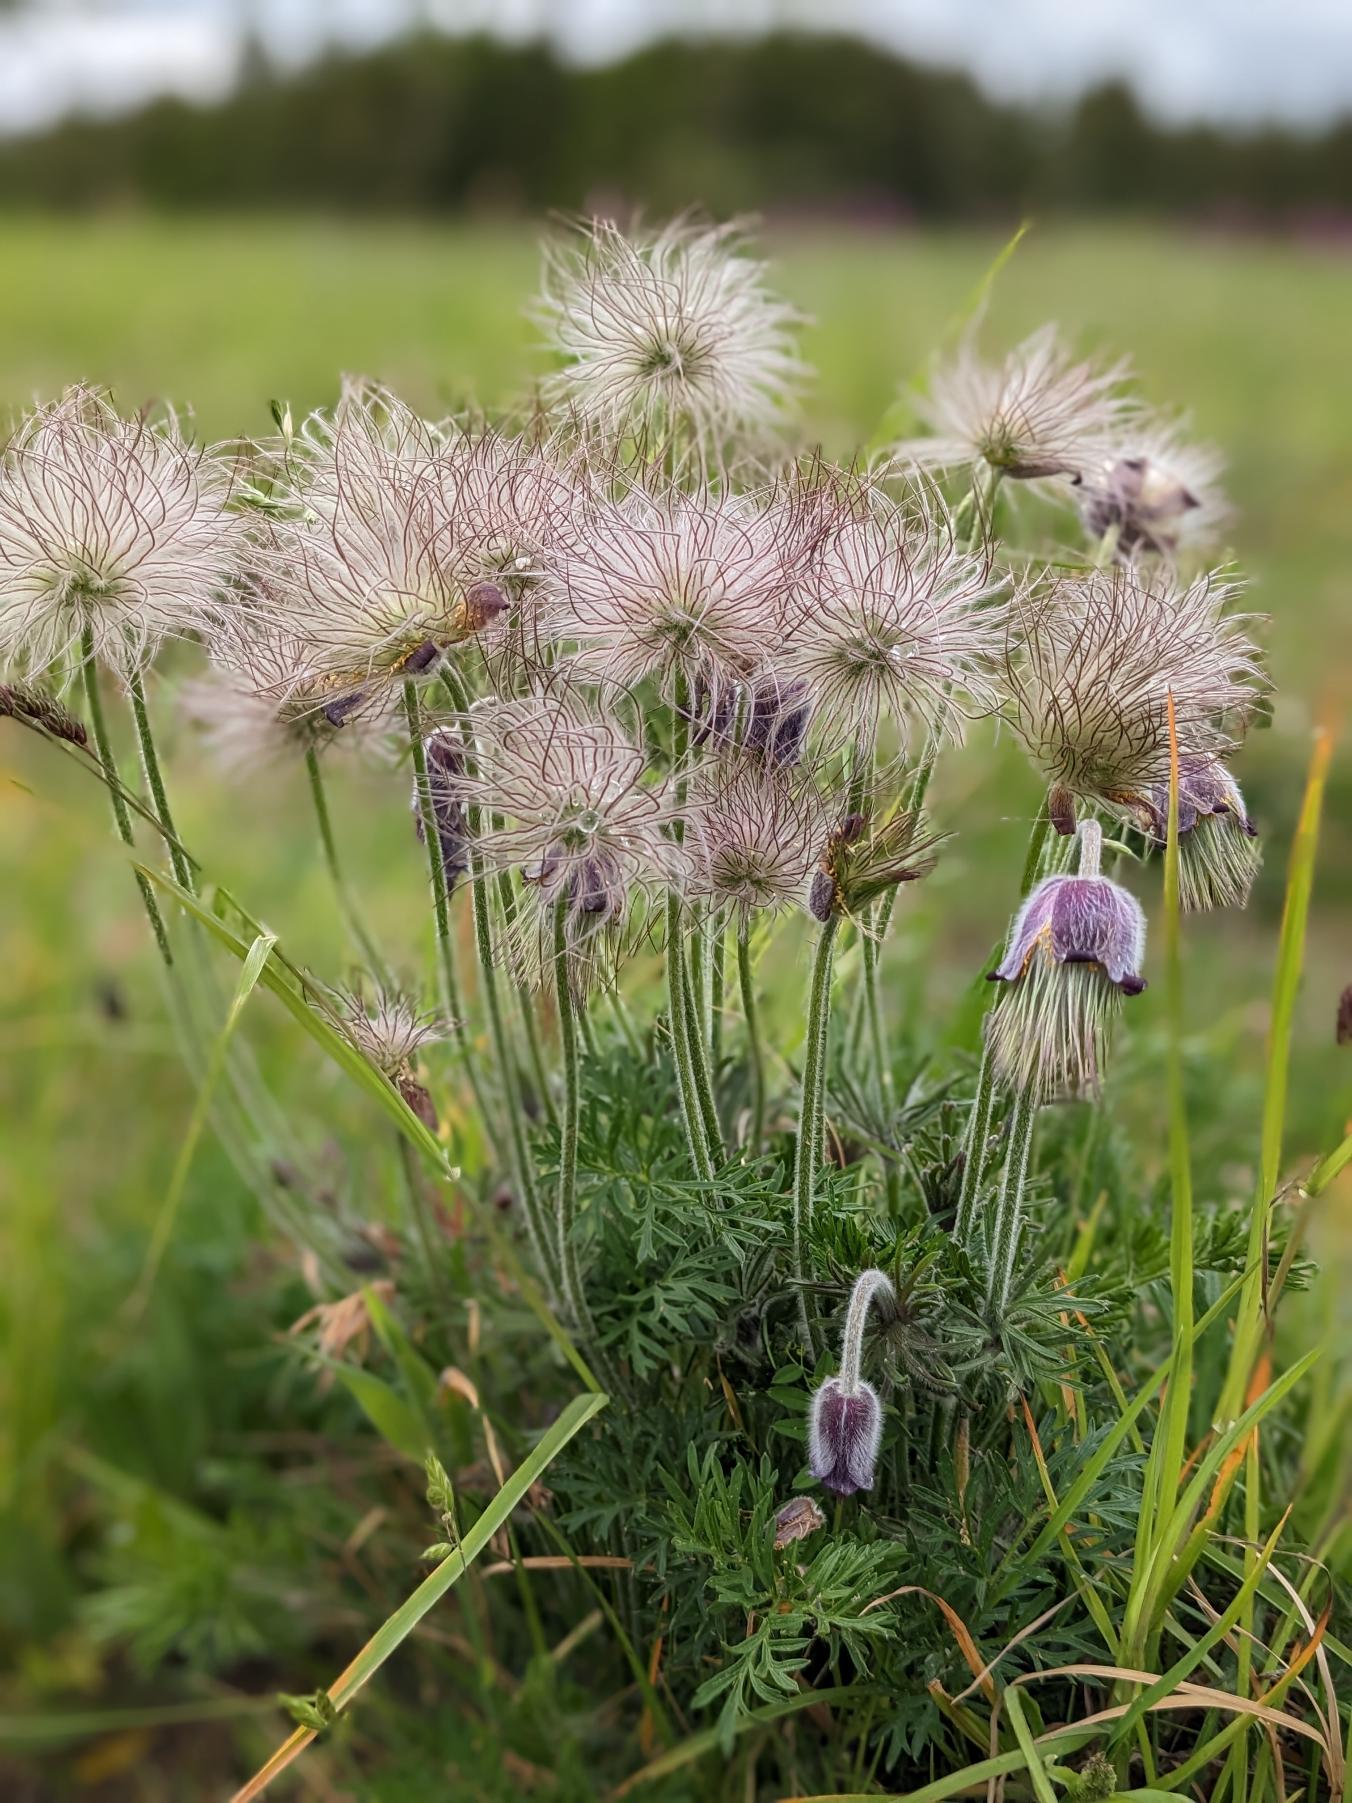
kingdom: Plantae
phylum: Tracheophyta
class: Magnoliopsida
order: Ranunculales
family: Ranunculaceae
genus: Pulsatilla
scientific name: Pulsatilla pratensis
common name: Nikkende kobjælde
